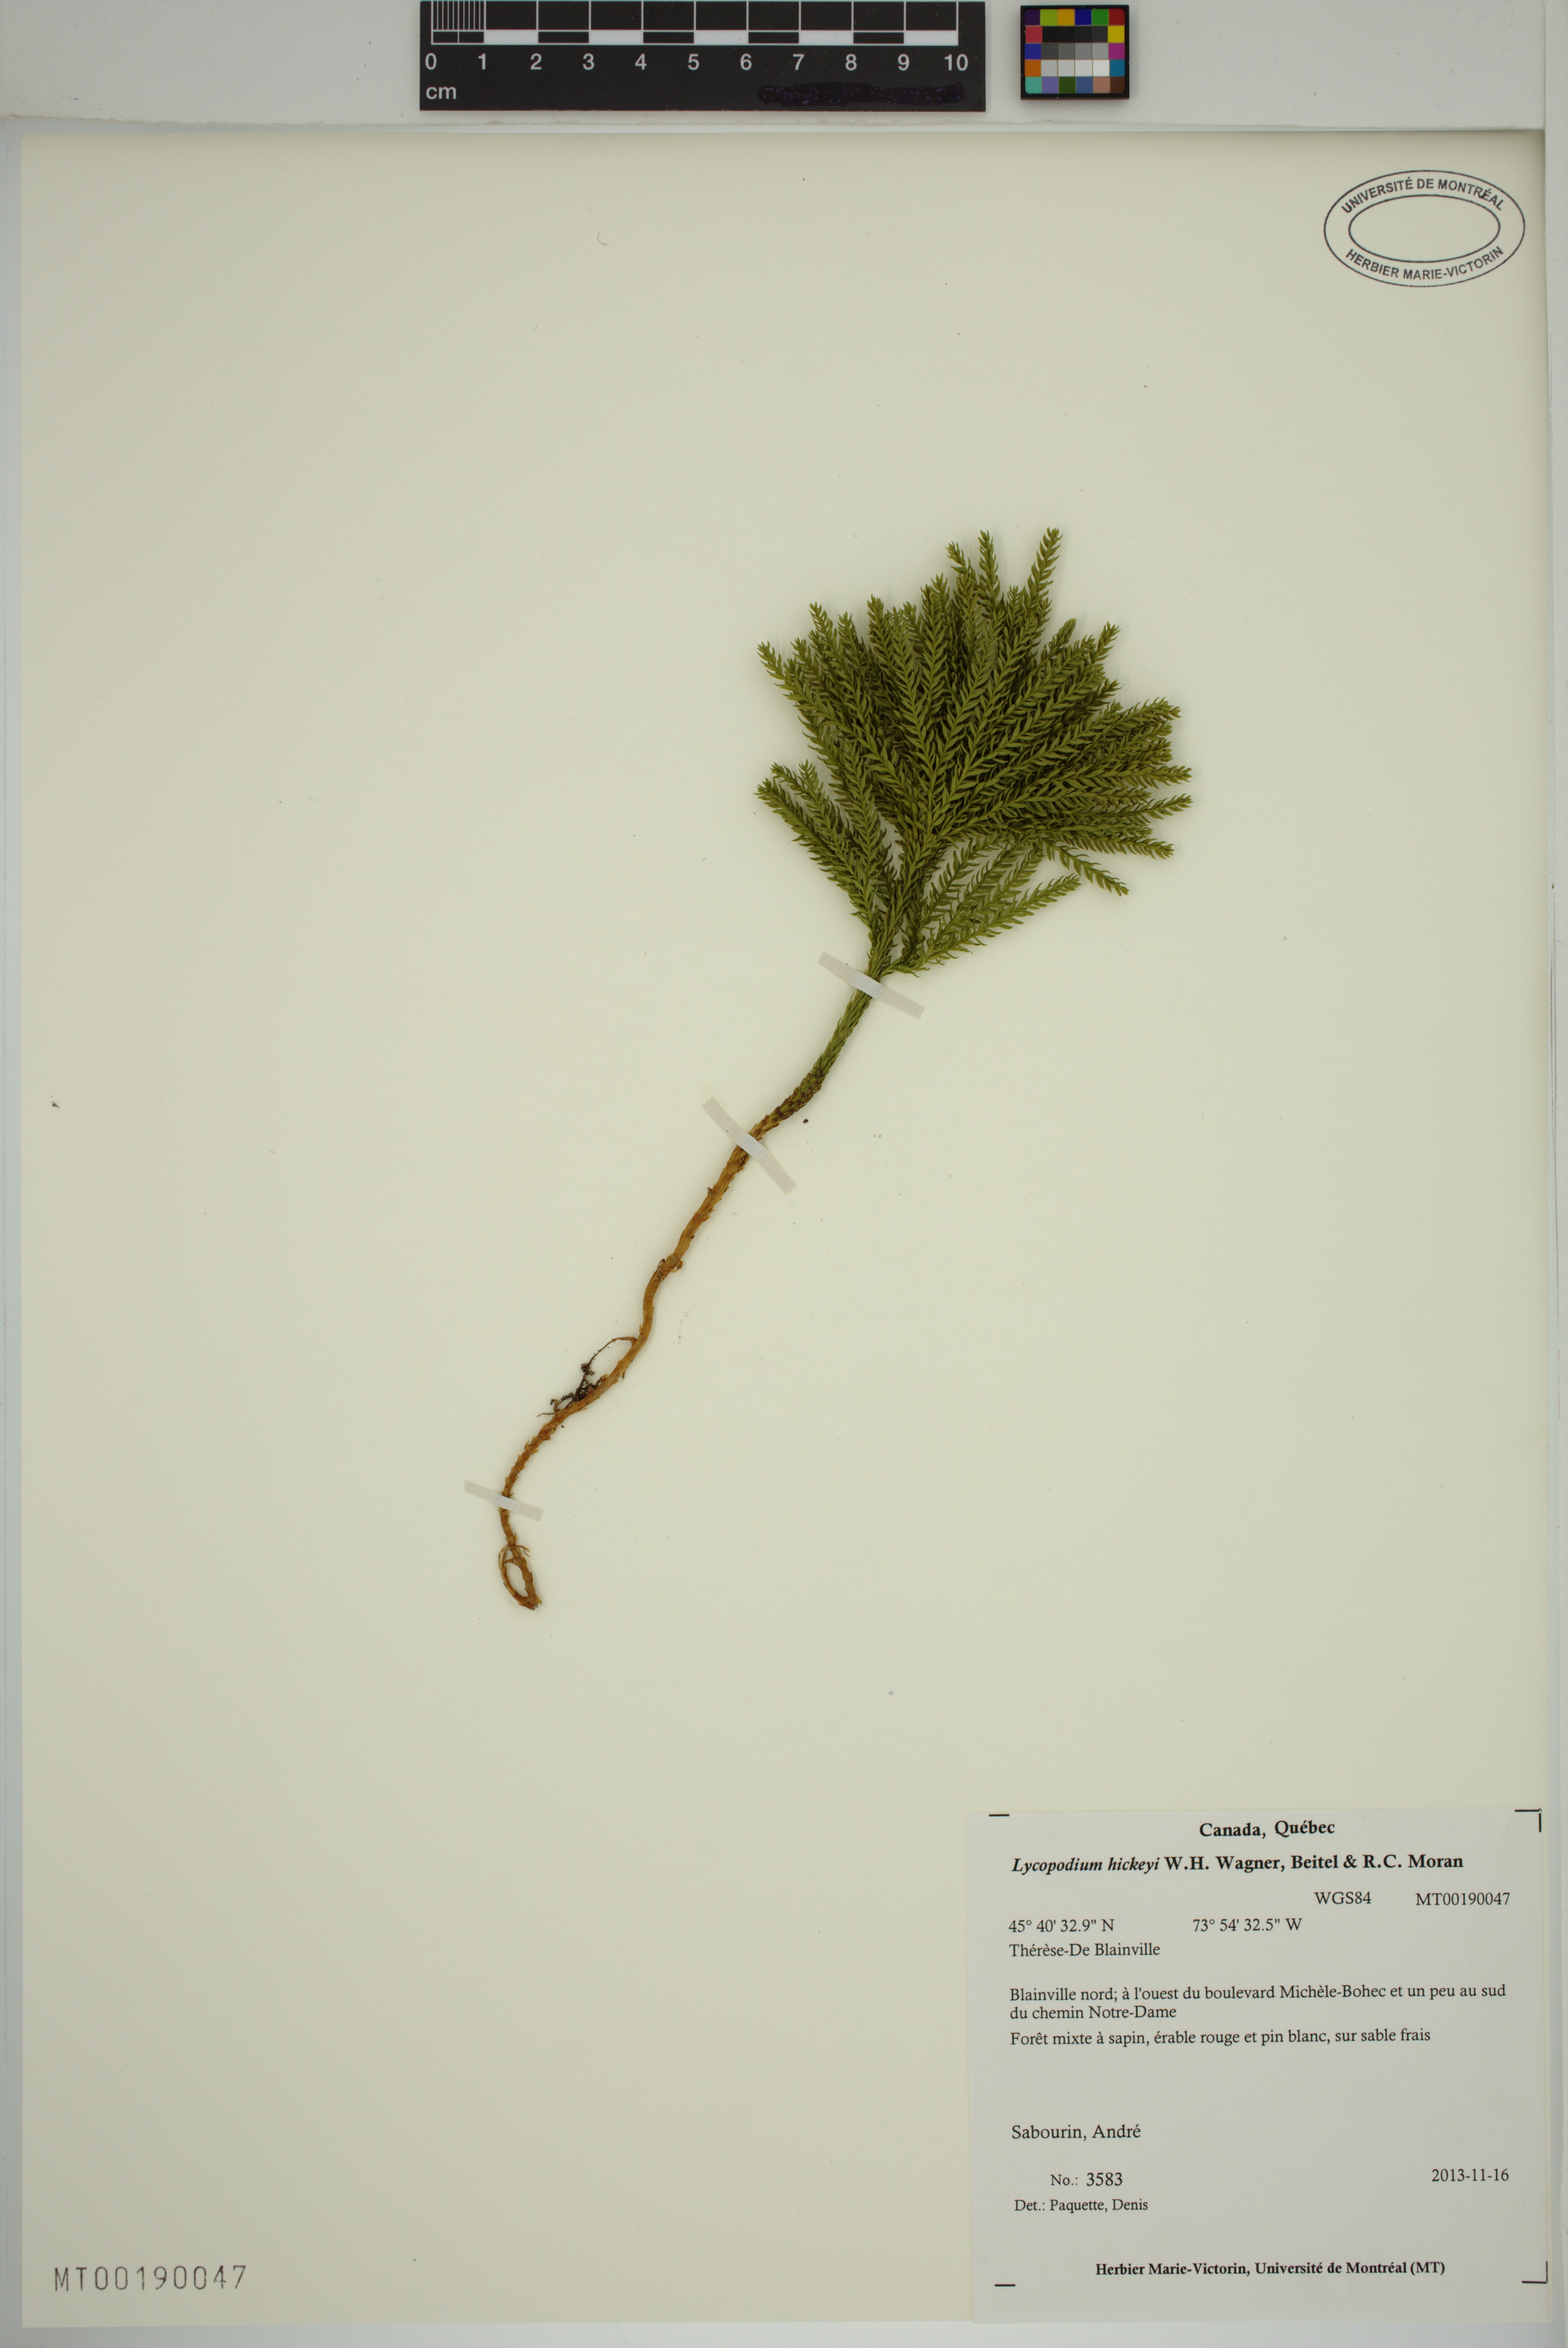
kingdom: Plantae
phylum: Tracheophyta
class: Lycopodiopsida
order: Lycopodiales
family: Lycopodiaceae
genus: Dendrolycopodium
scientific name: Dendrolycopodium hickeyi
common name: Hickey's clubmoss
